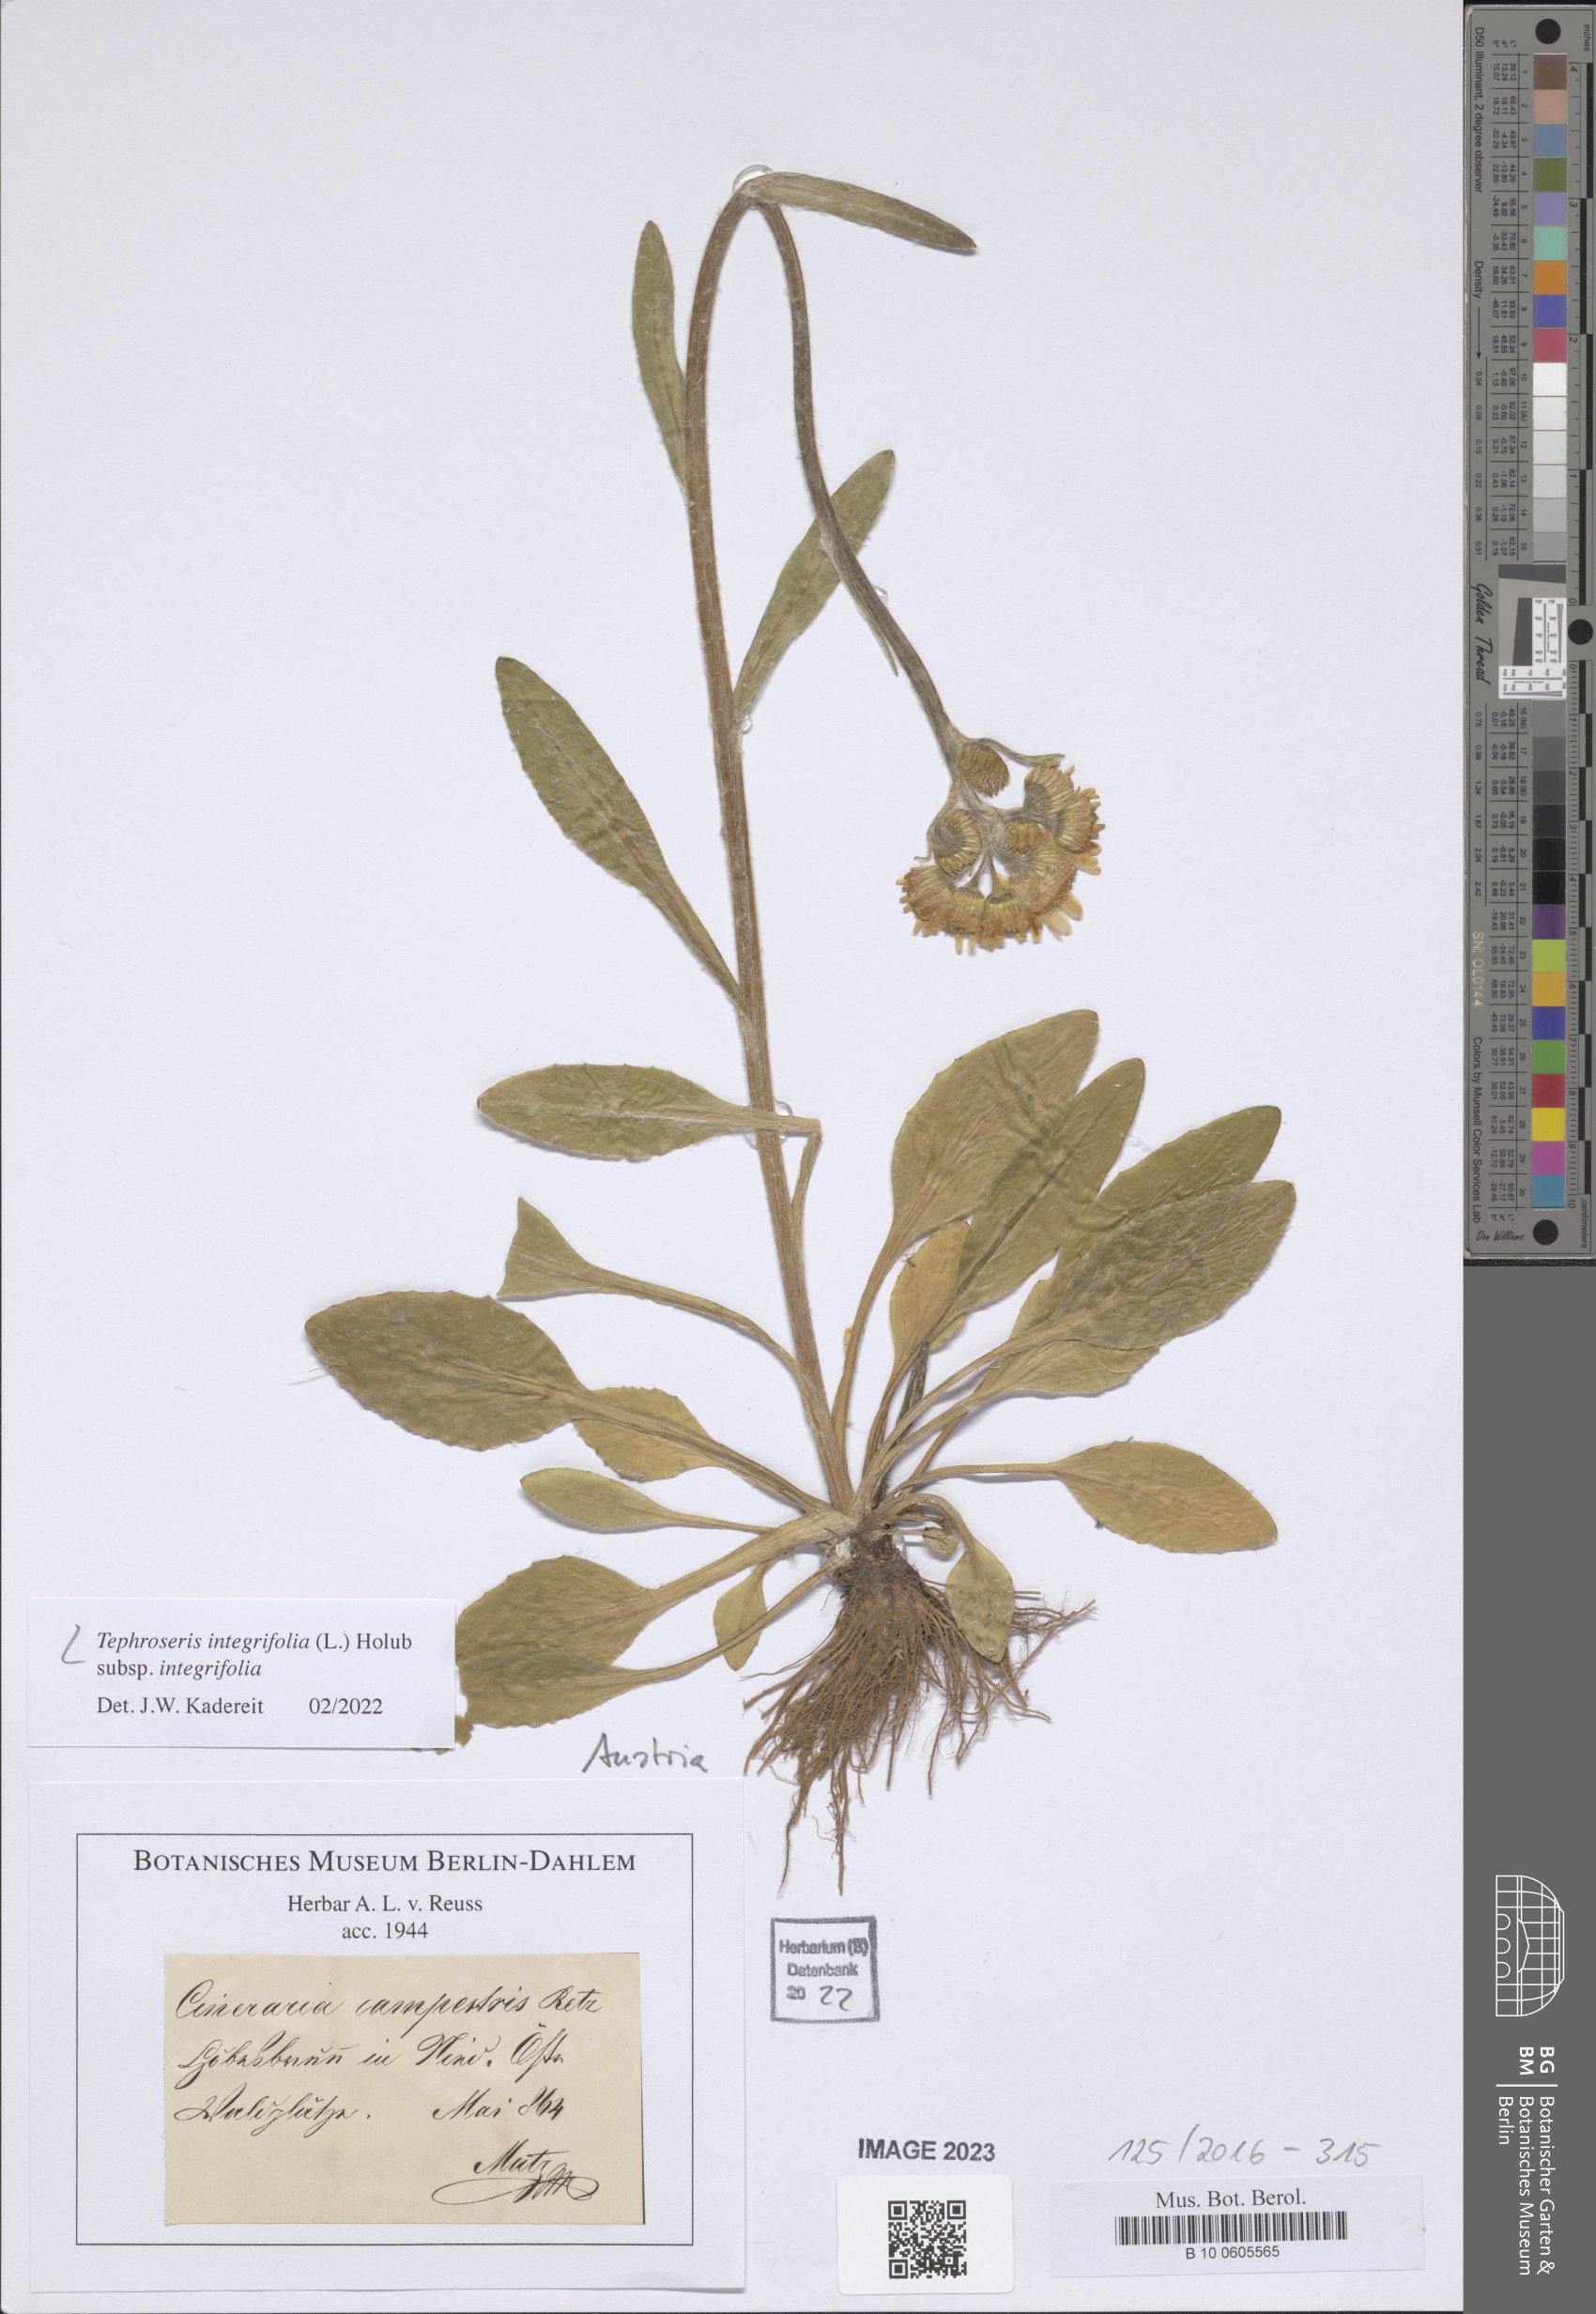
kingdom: Plantae
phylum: Tracheophyta
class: Magnoliopsida
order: Asterales
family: Asteraceae
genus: Tephroseris
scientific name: Tephroseris integrifolia
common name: Field fleawort
